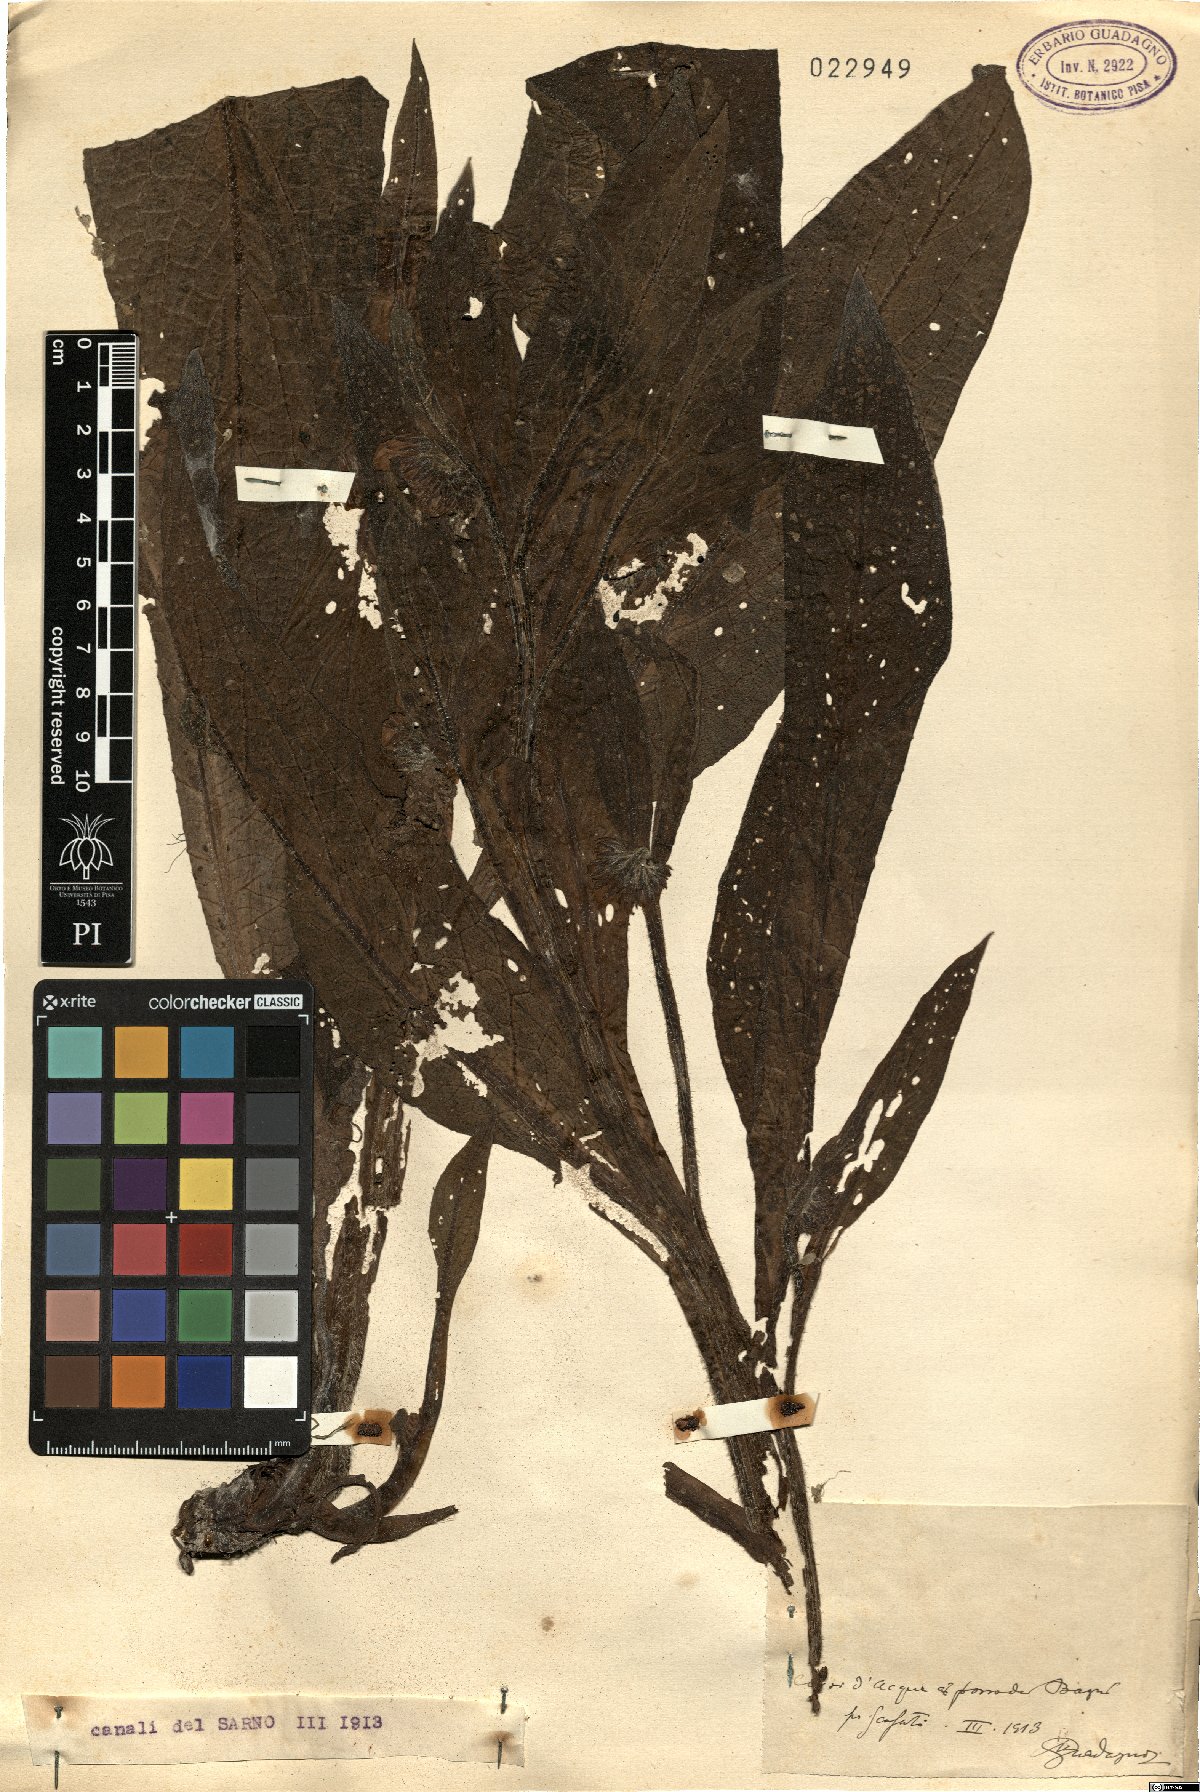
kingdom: Plantae
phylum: Tracheophyta
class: Magnoliopsida
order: Boraginales
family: Boraginaceae
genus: Symphytum
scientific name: Symphytum
